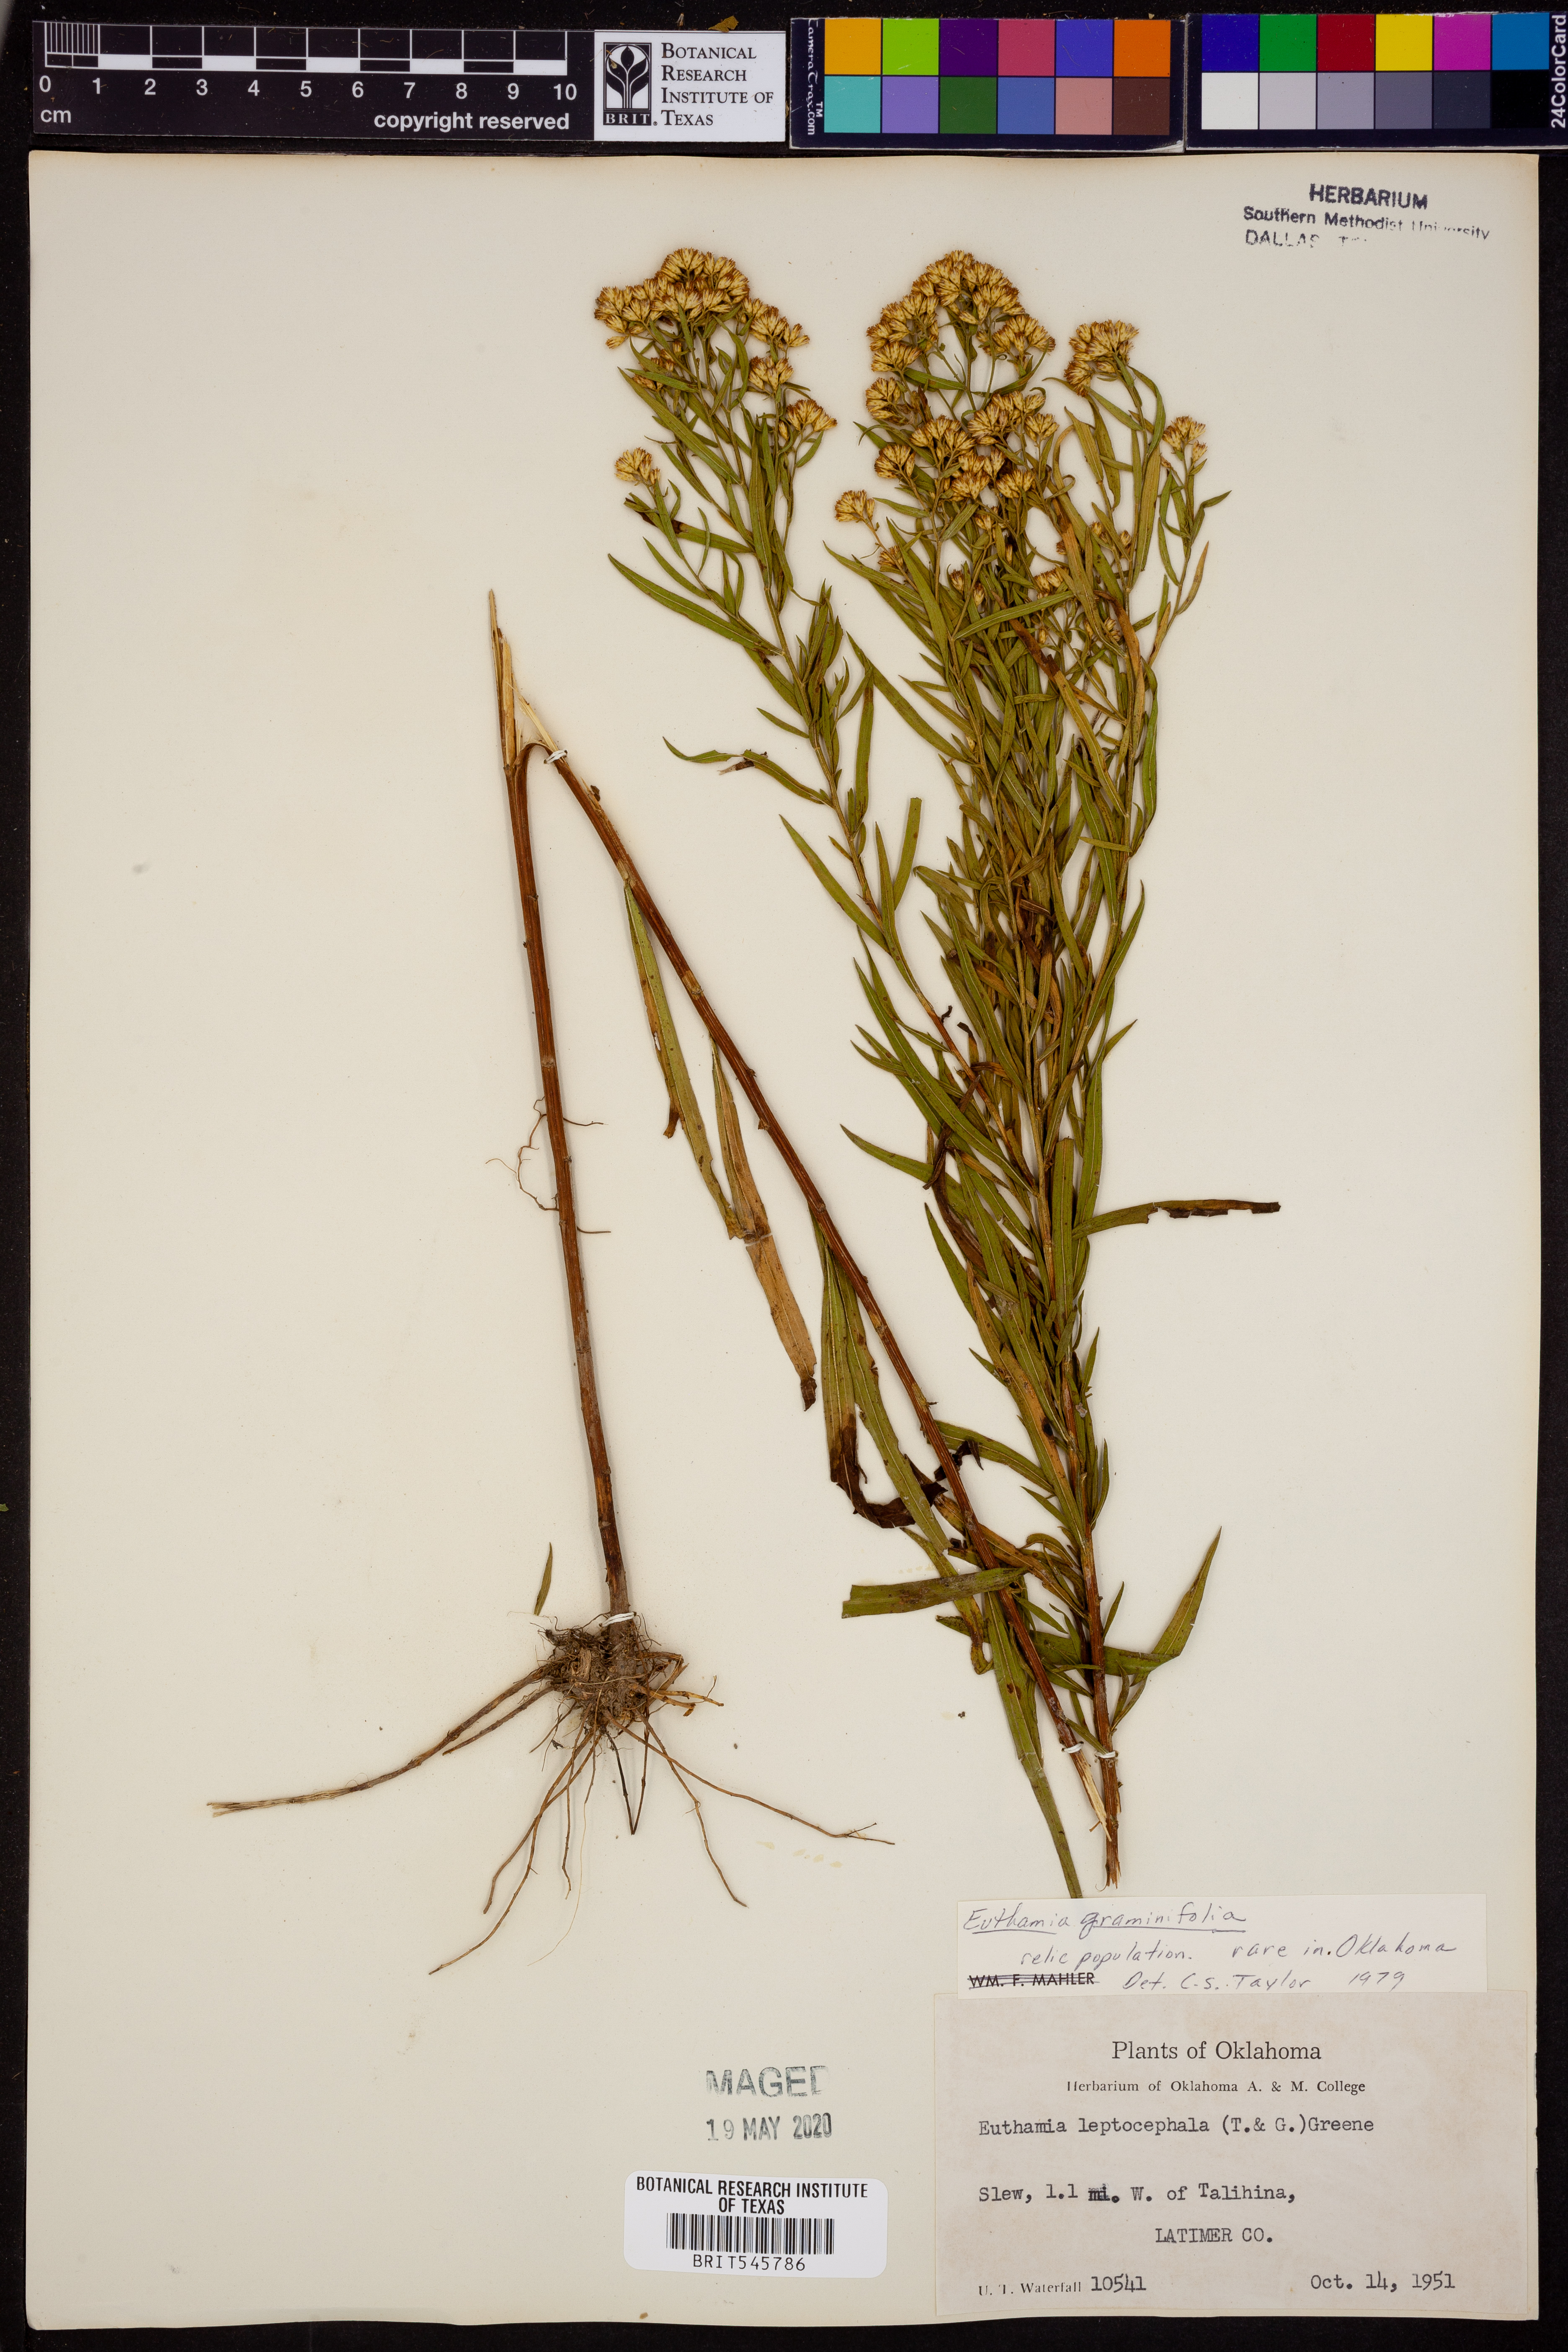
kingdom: Plantae
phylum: Tracheophyta
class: Magnoliopsida
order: Asterales
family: Asteraceae
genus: Euthamia
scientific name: Euthamia graminifolia
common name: Common goldentop
